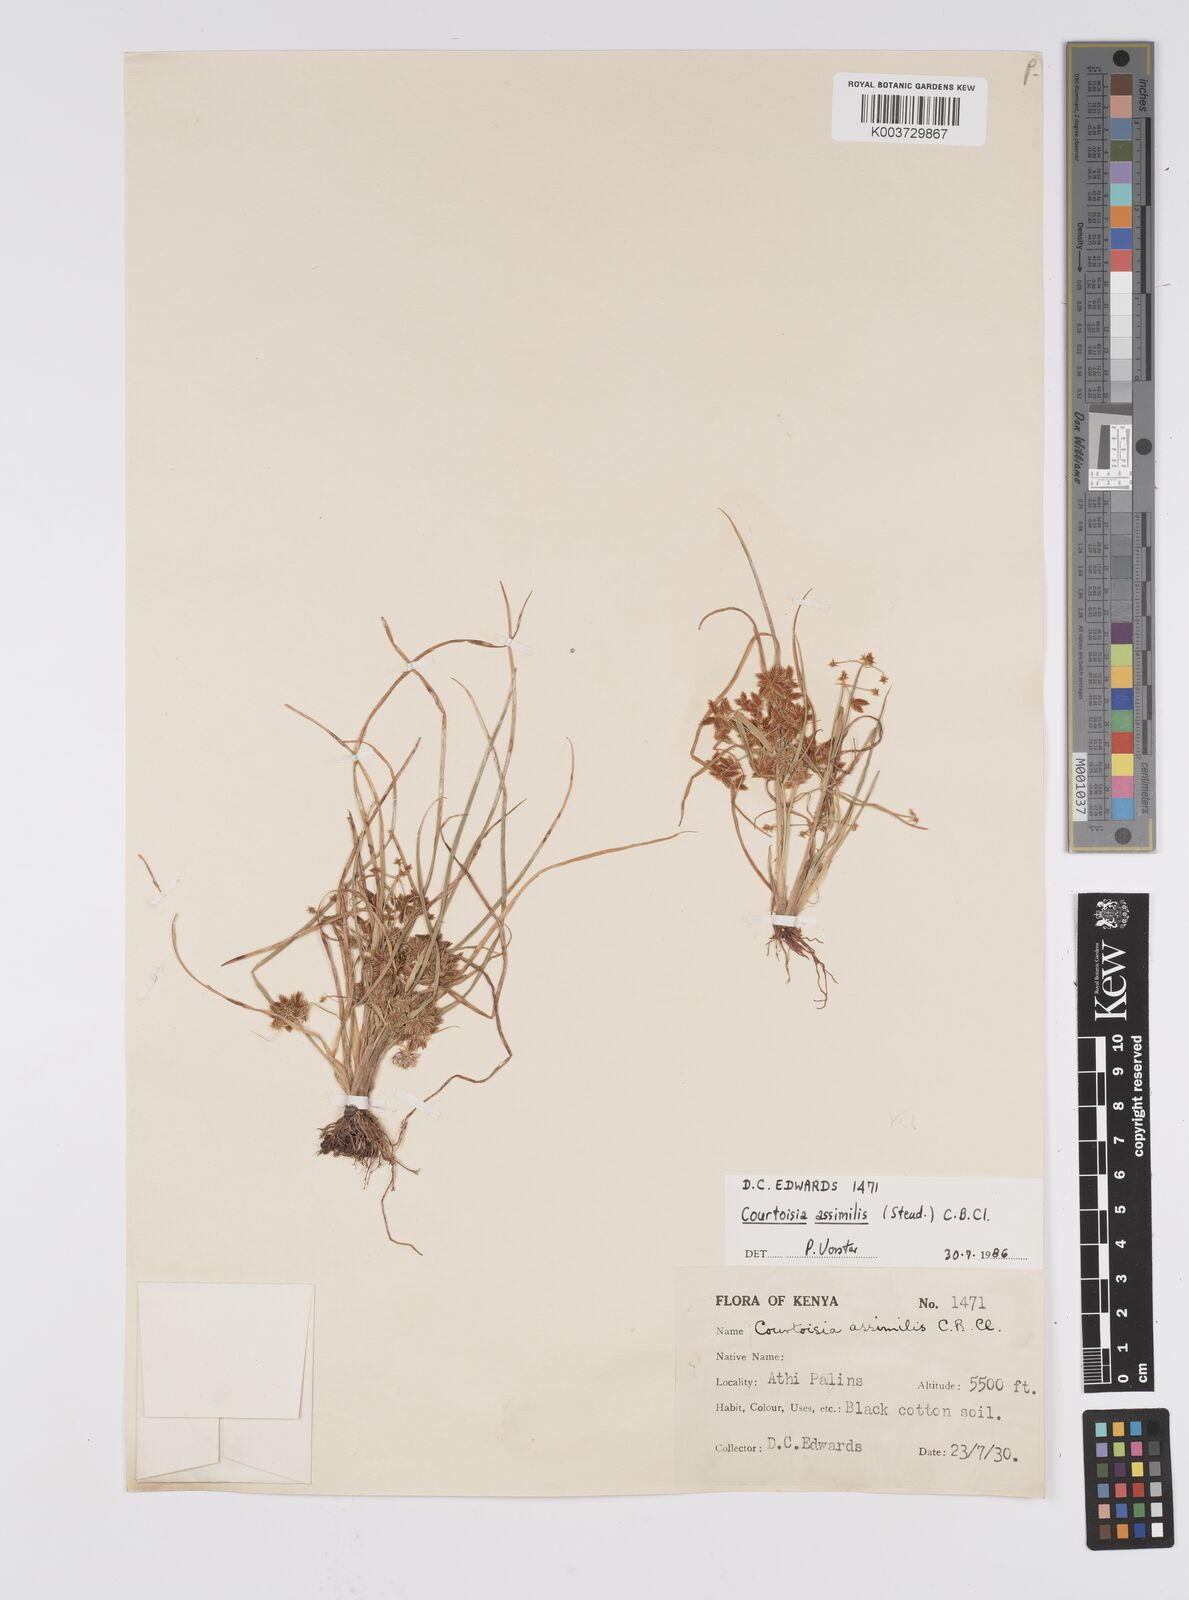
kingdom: Plantae
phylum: Tracheophyta
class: Liliopsida
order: Poales
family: Cyperaceae
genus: Cyperus
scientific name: Cyperus assimilis
